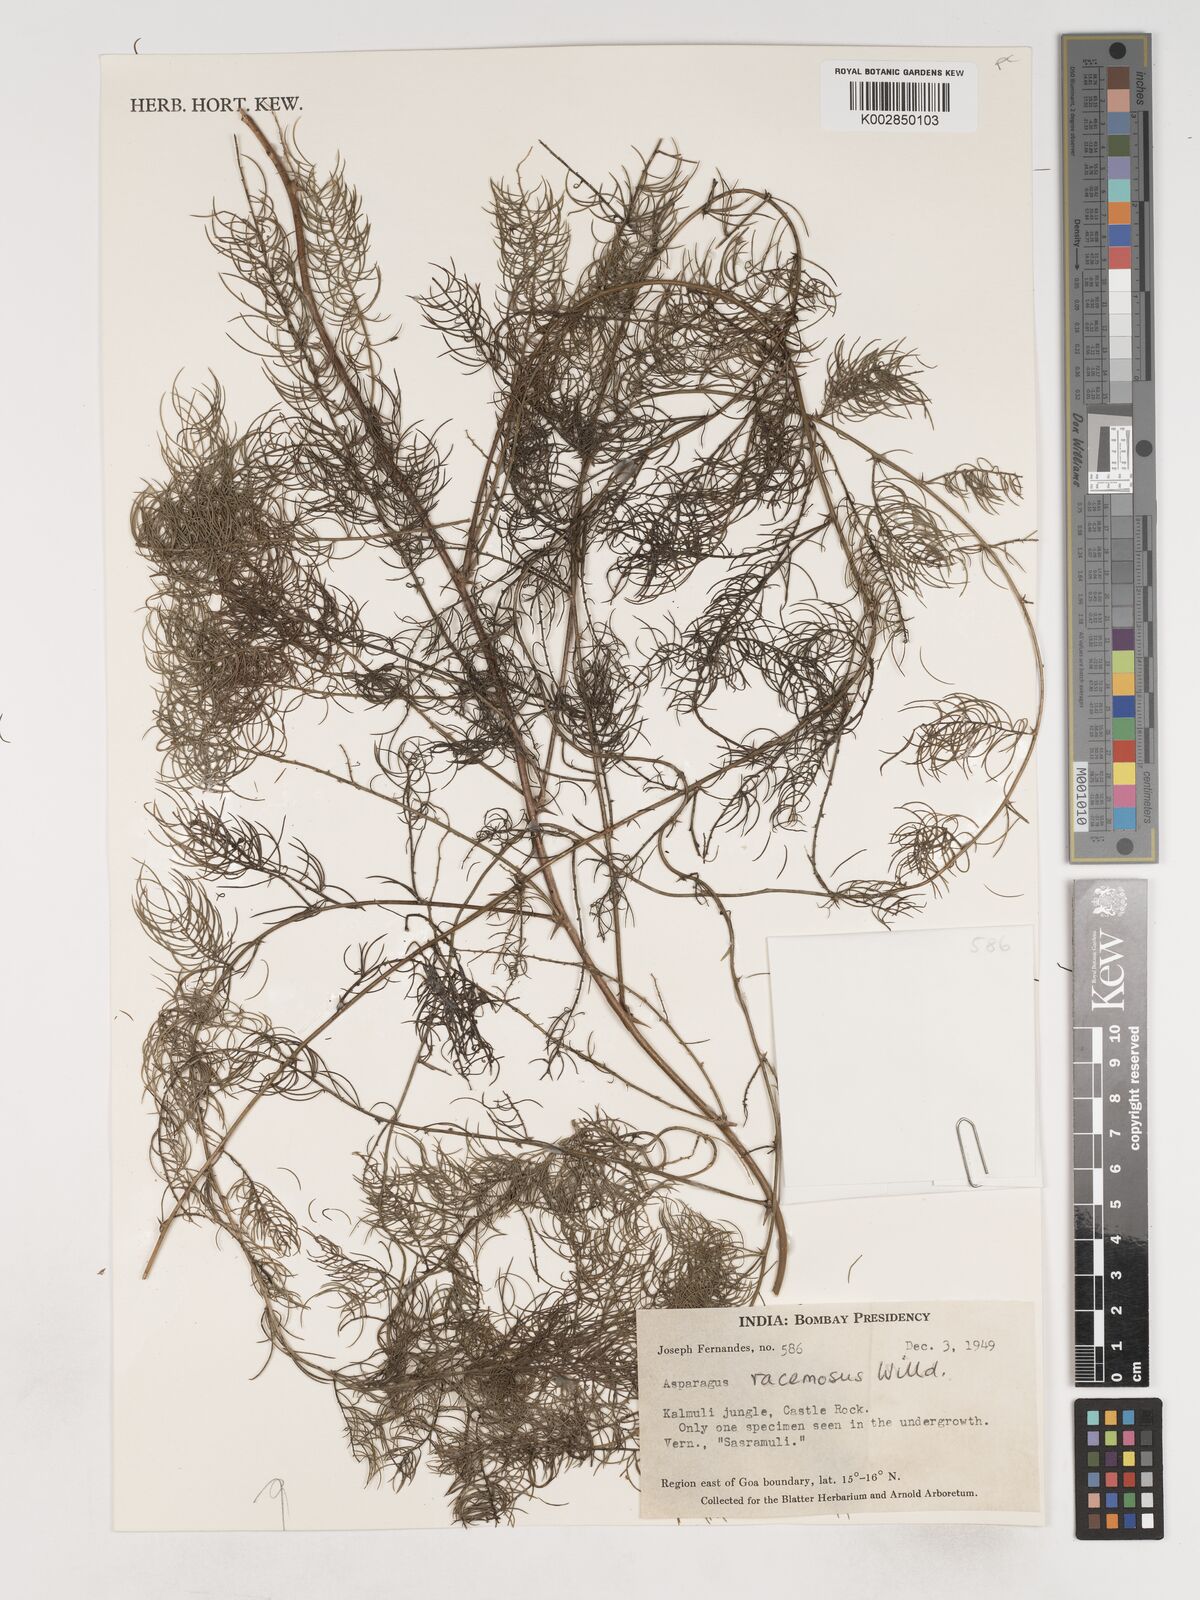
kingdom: Plantae
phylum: Tracheophyta
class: Liliopsida
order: Asparagales
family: Asparagaceae
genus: Asparagus
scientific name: Asparagus racemosus
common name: Asparagus-fern
